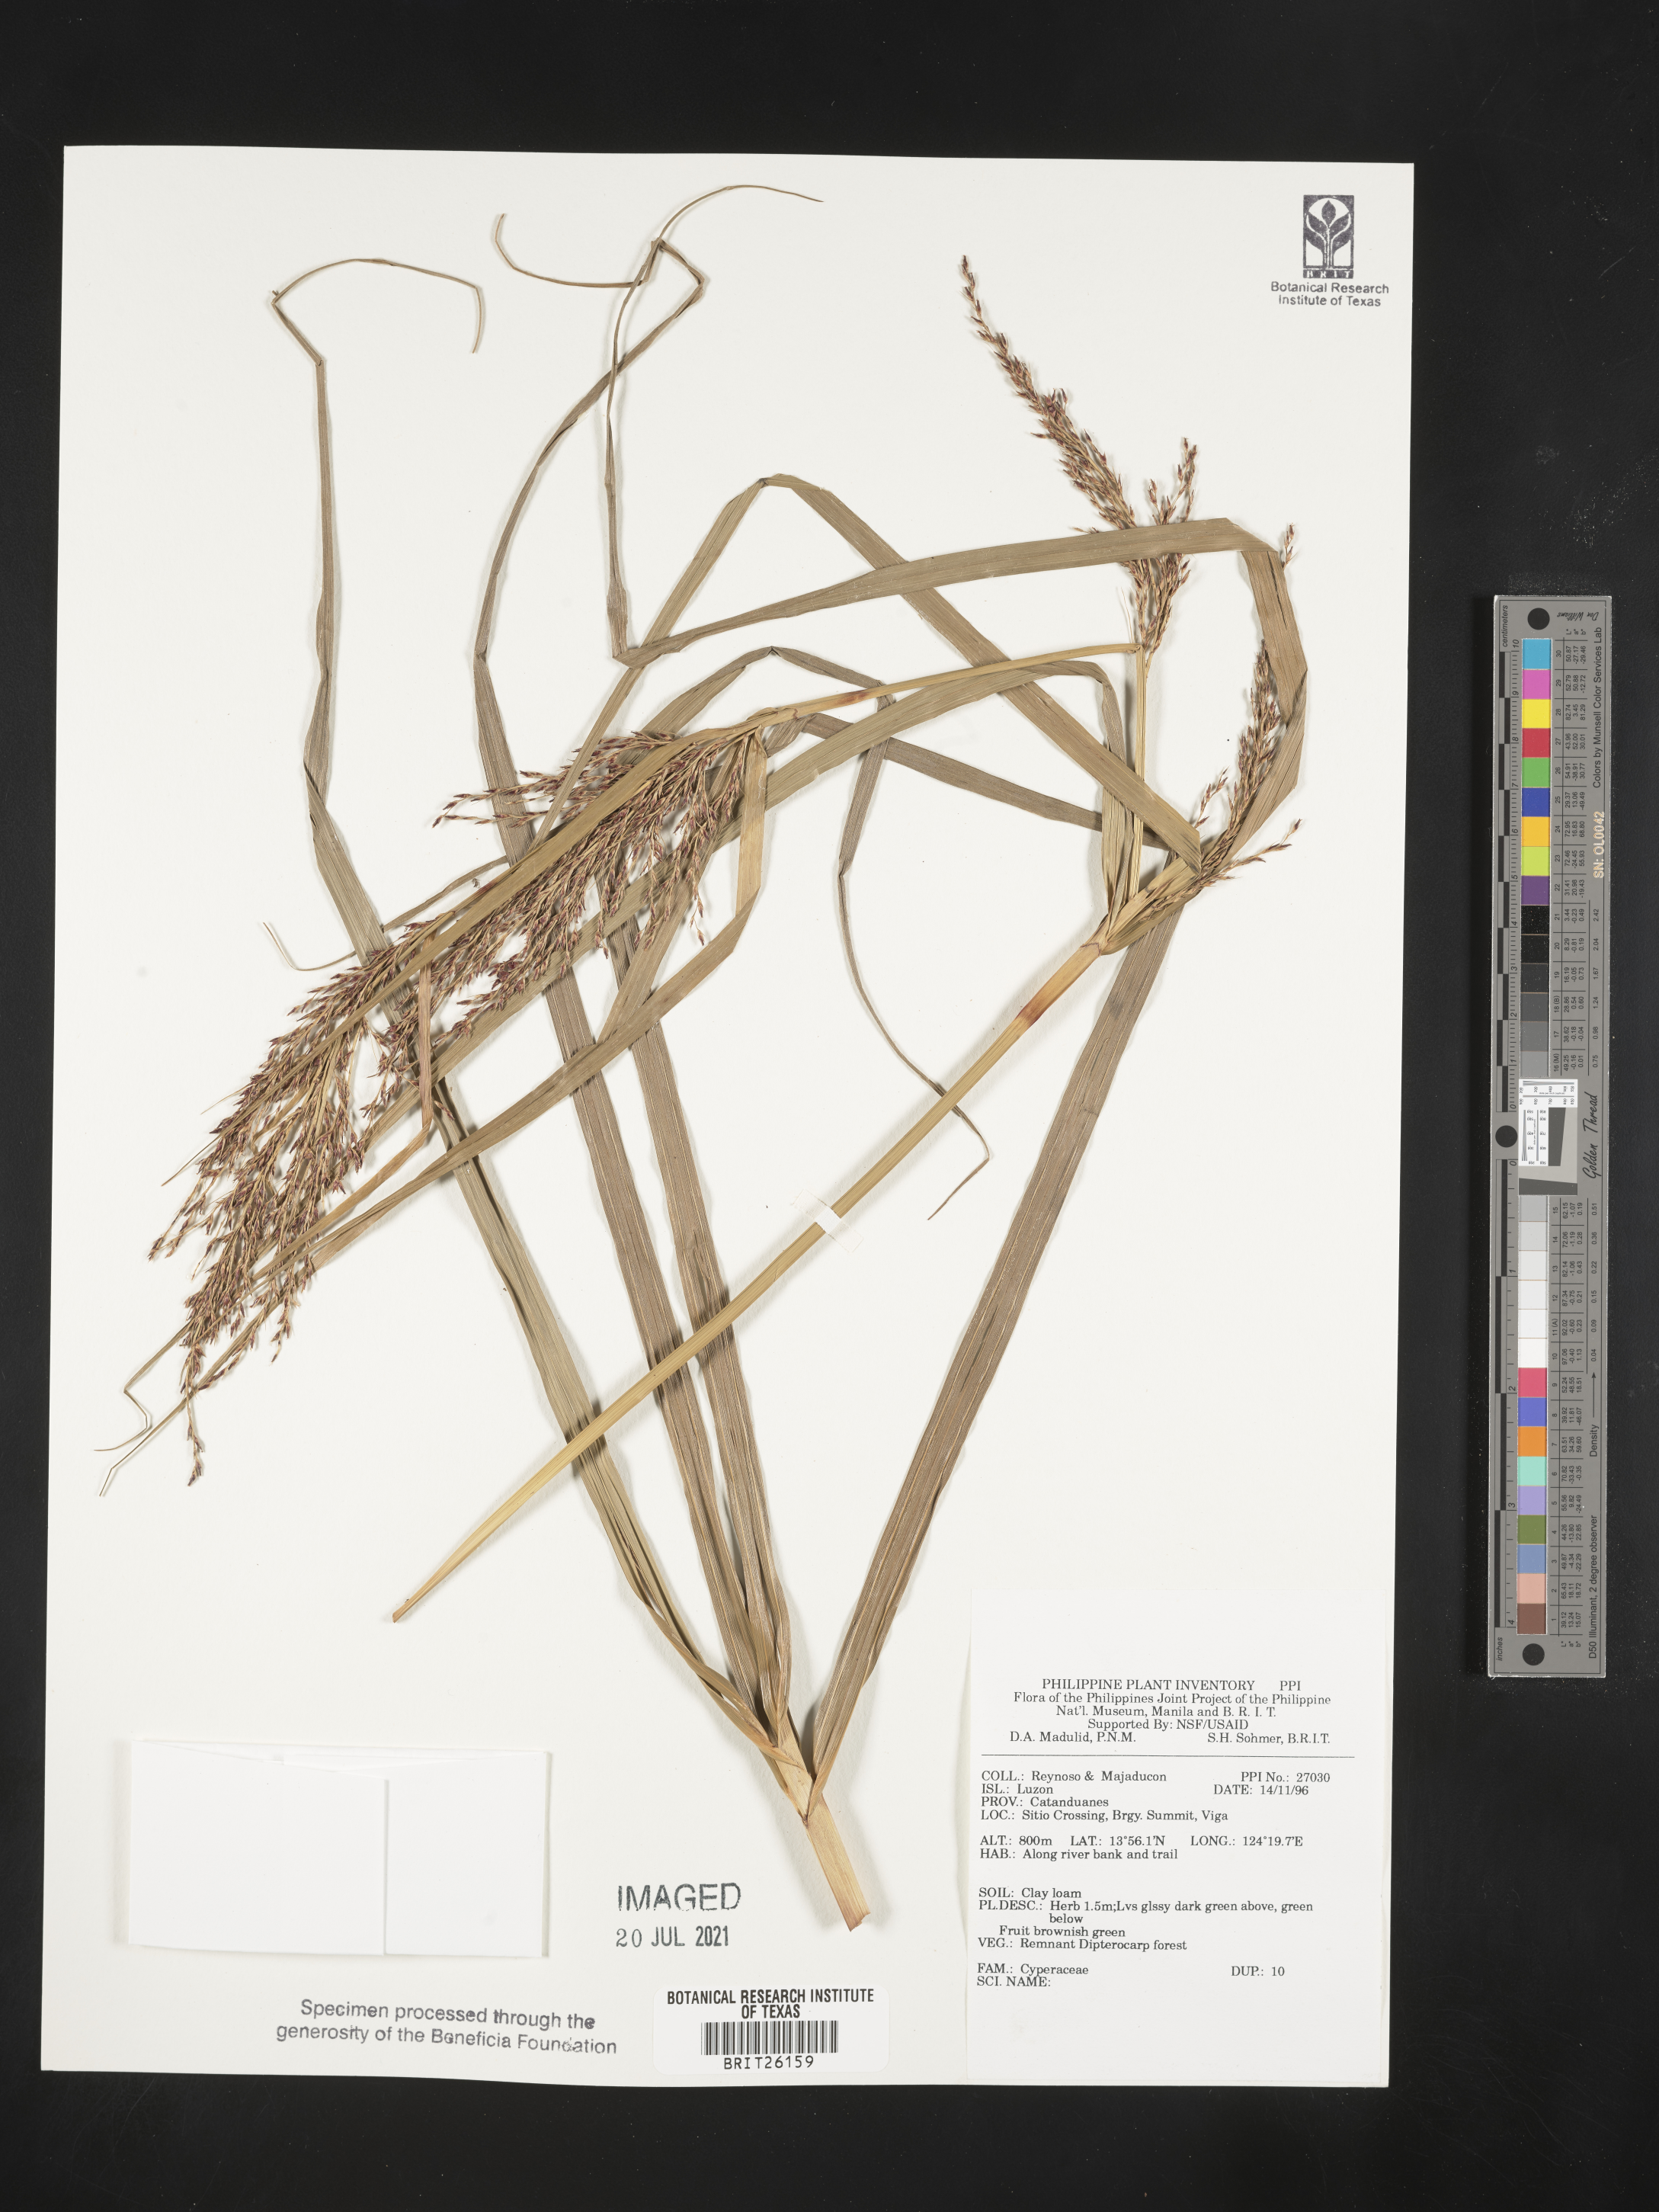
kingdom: Plantae
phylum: Tracheophyta
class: Liliopsida
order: Poales
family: Cyperaceae
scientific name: Cyperaceae
